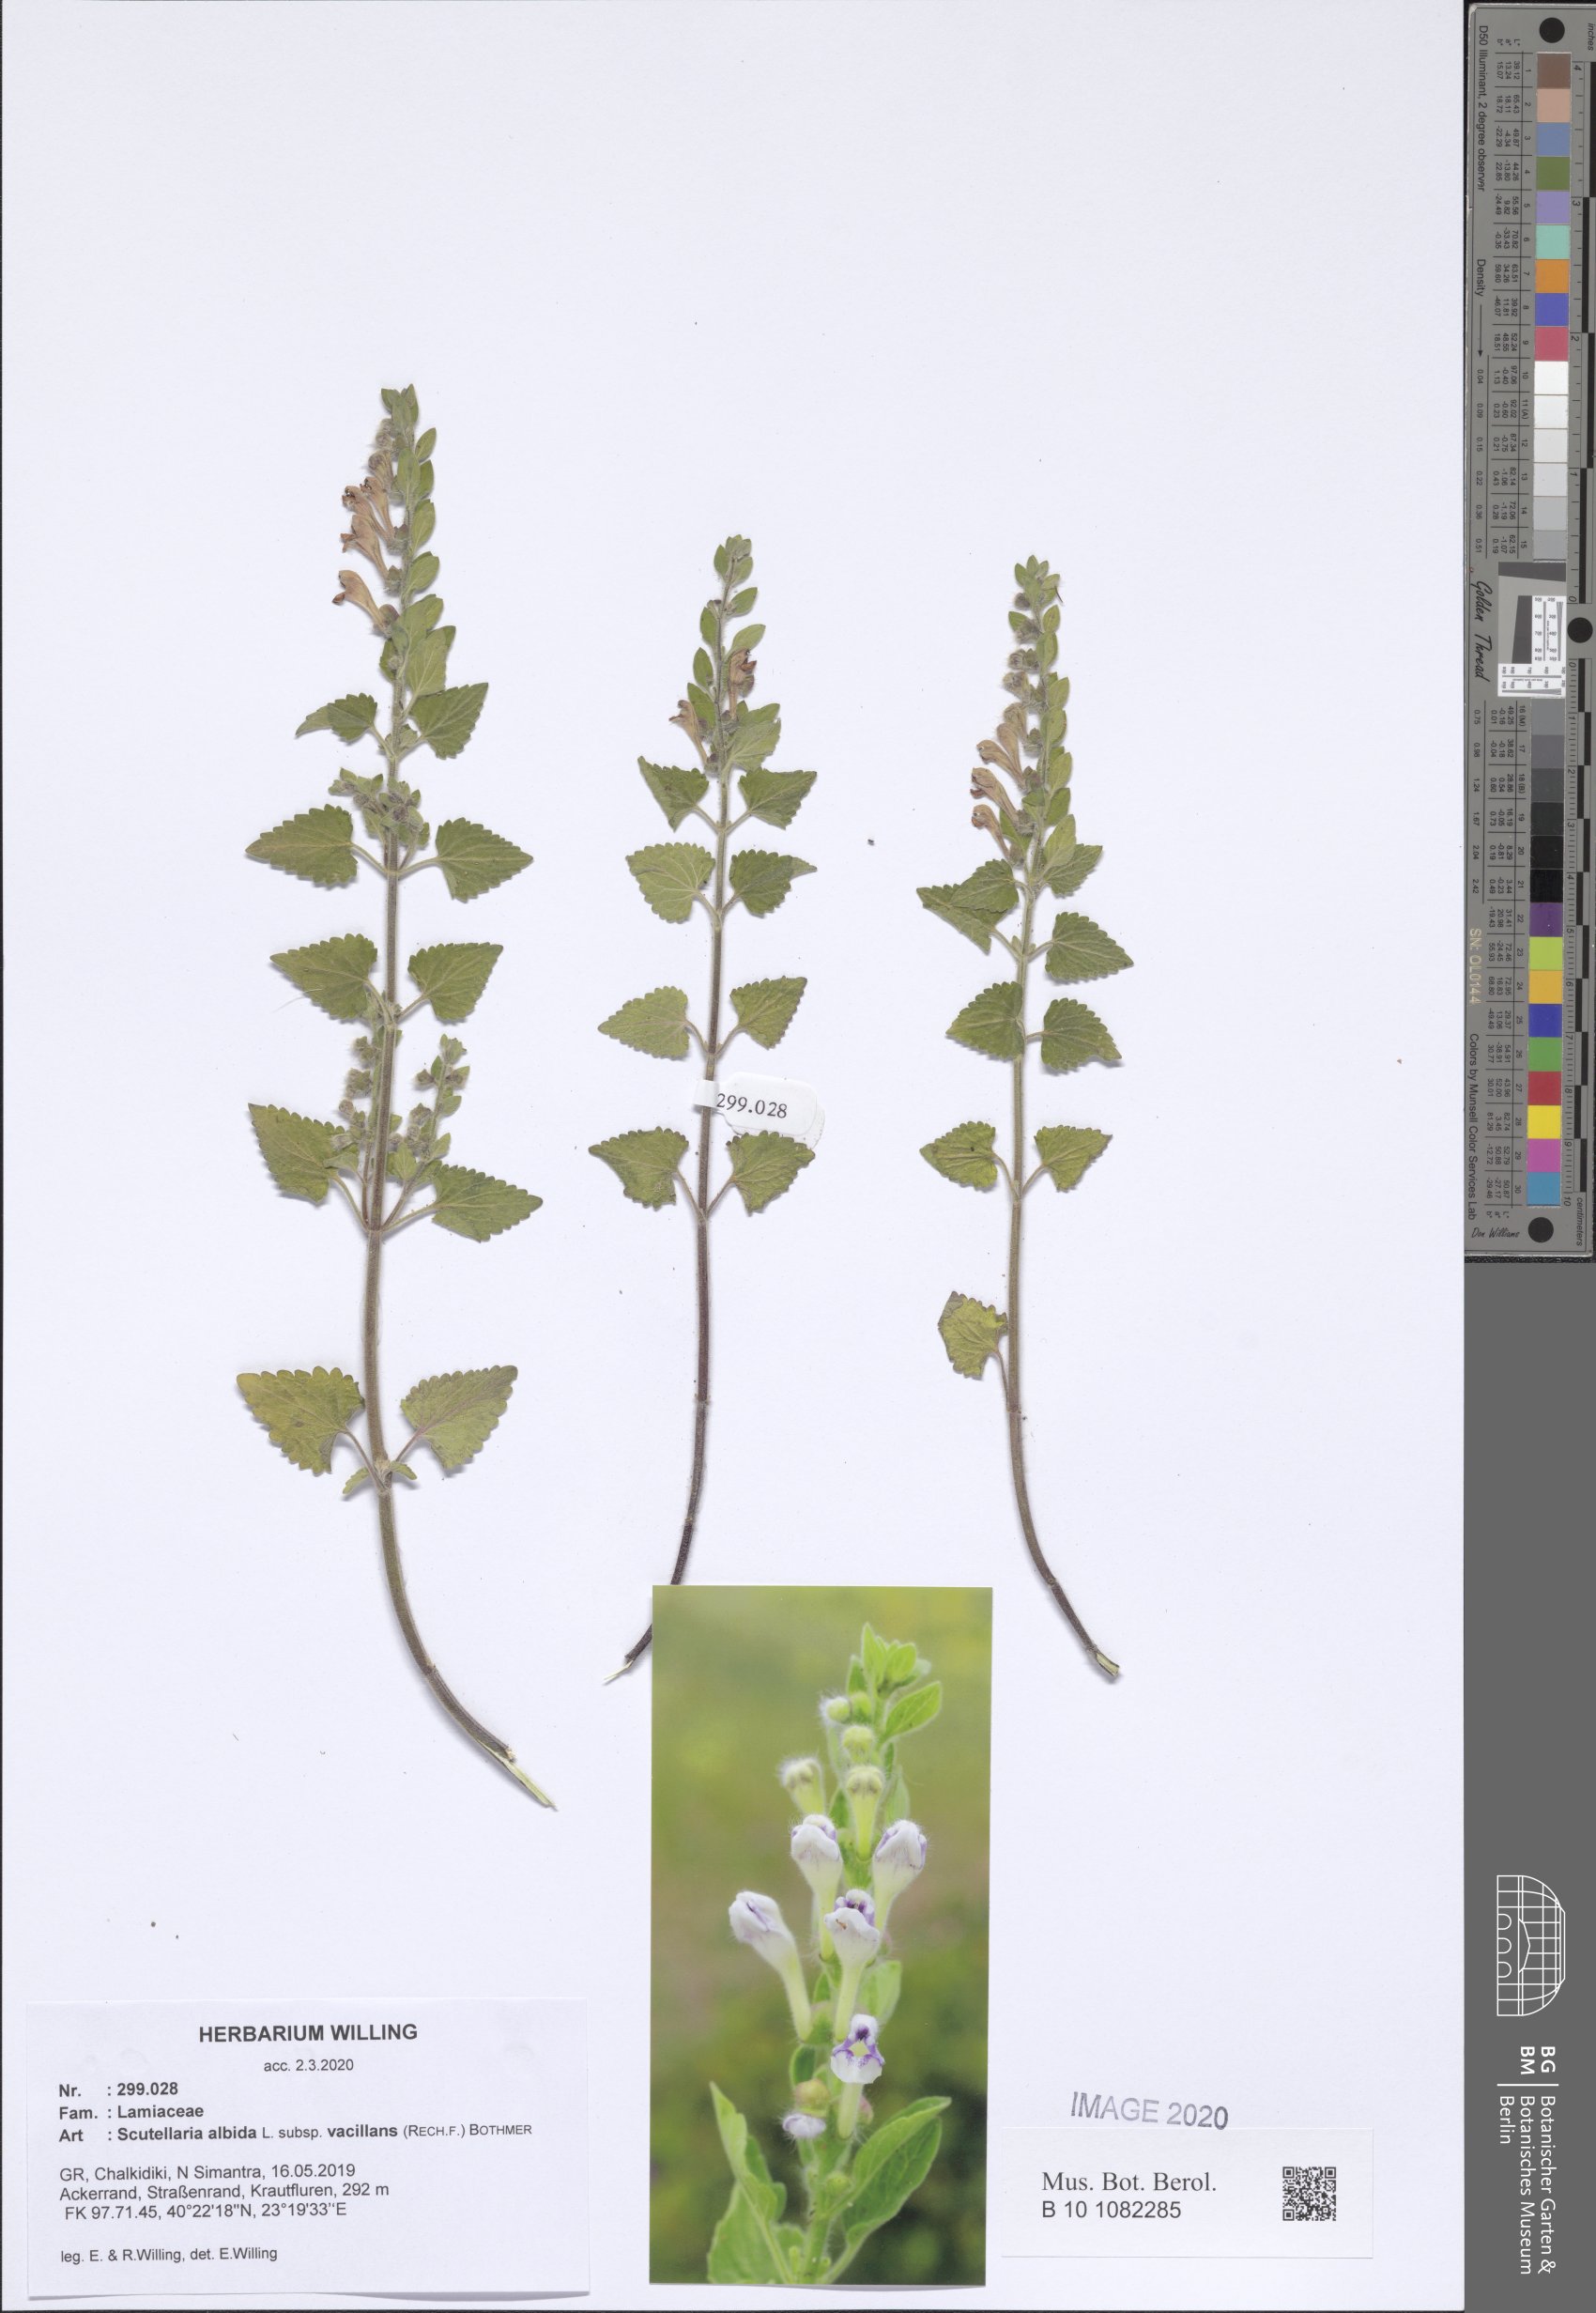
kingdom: Plantae
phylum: Tracheophyta
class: Magnoliopsida
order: Lamiales
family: Lamiaceae
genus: Scutellaria
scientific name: Scutellaria albida
